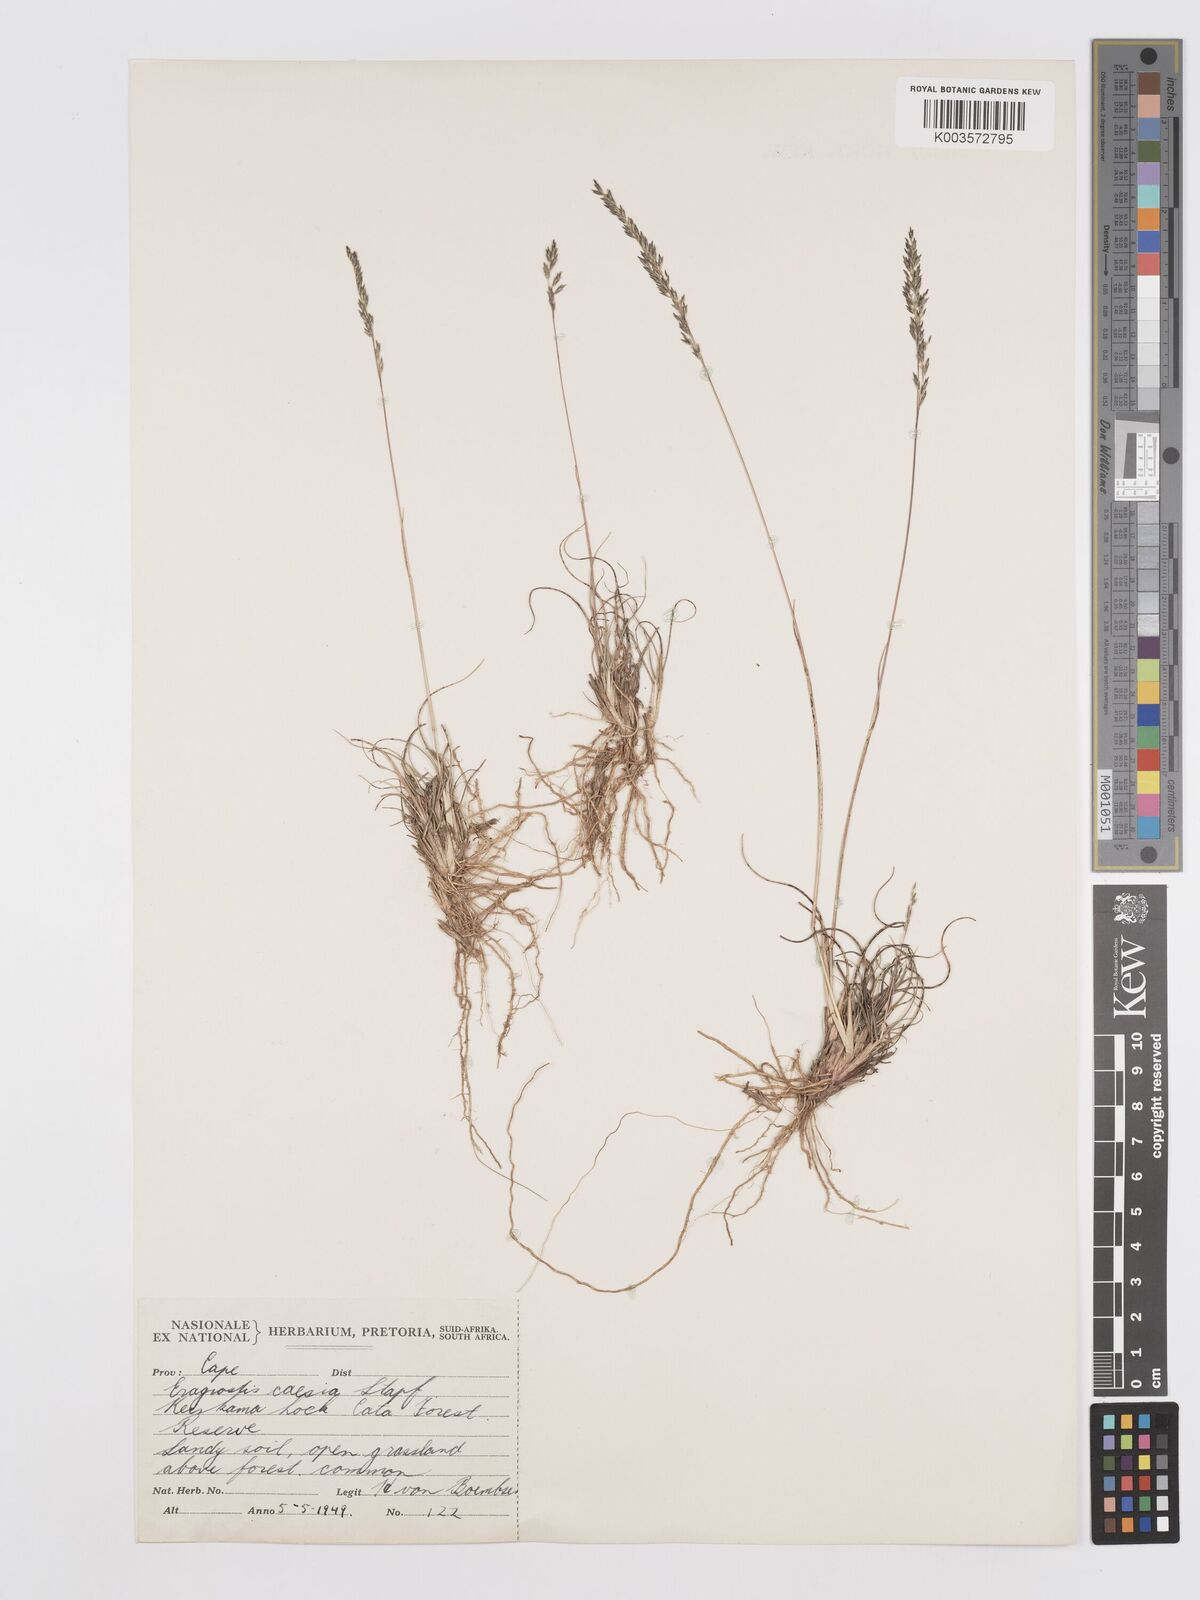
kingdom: Plantae
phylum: Tracheophyta
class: Liliopsida
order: Poales
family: Poaceae
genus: Eragrostis
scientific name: Eragrostis caesia
